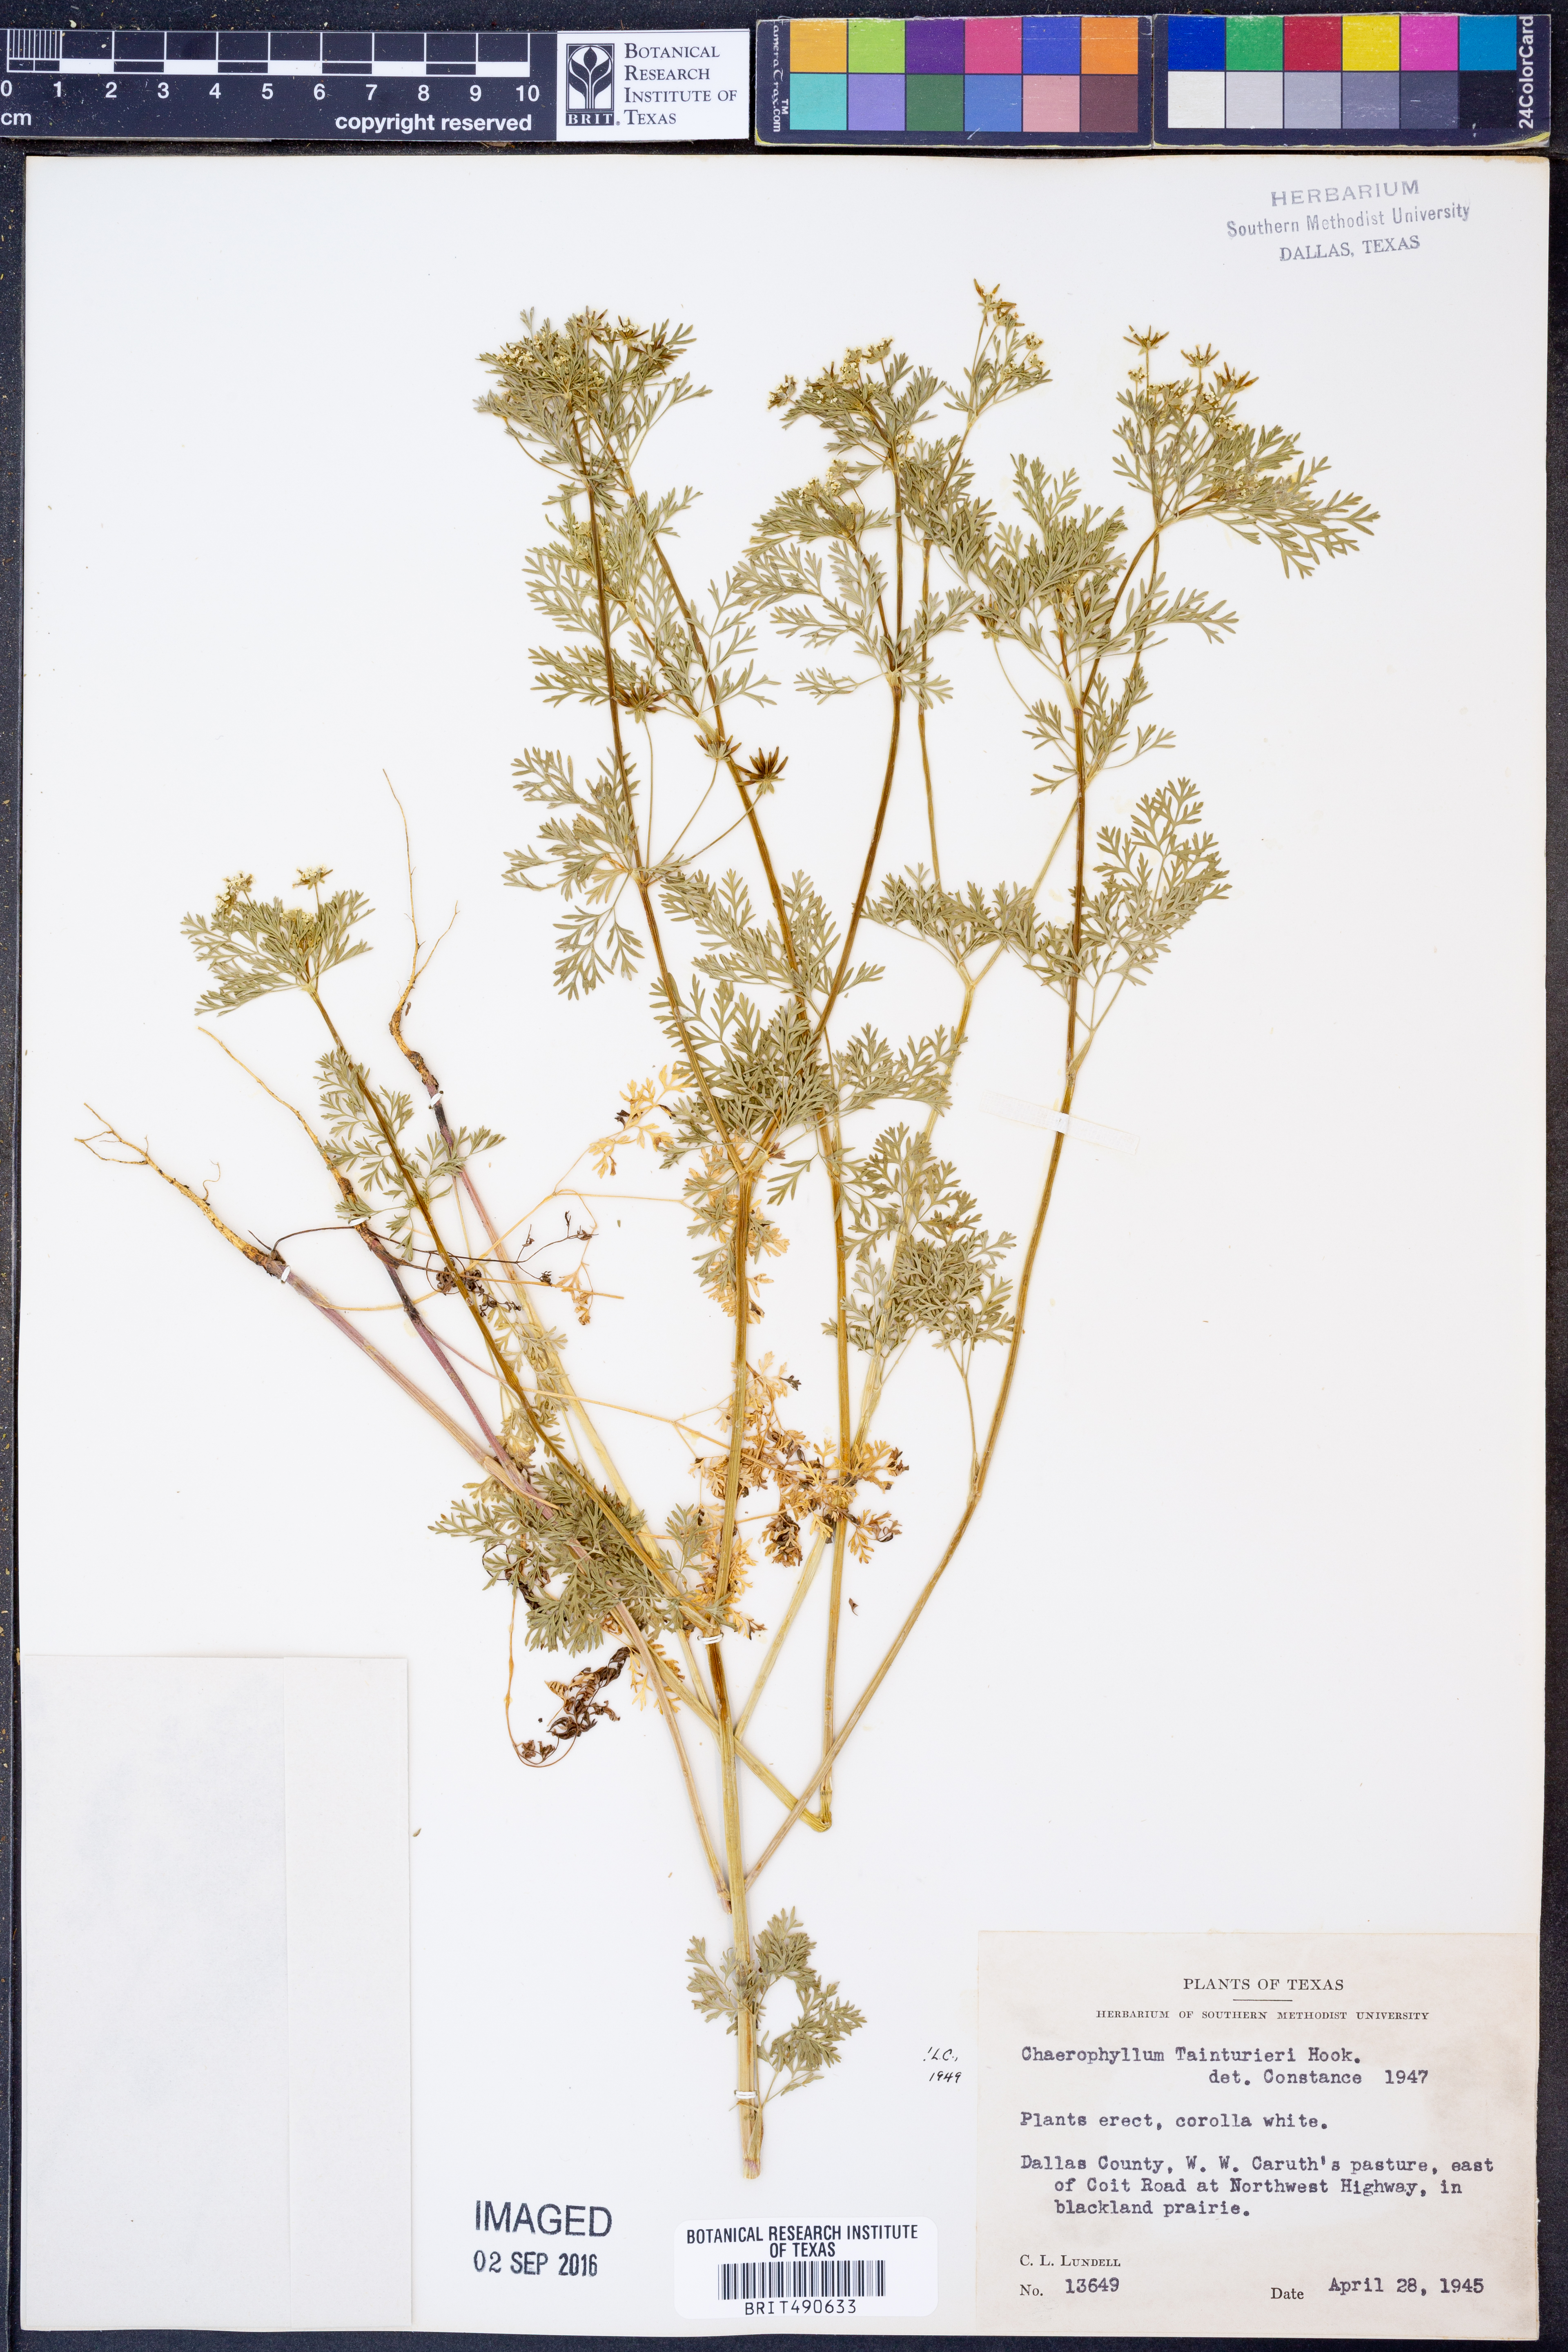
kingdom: Plantae
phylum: Tracheophyta
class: Magnoliopsida
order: Apiales
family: Apiaceae
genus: Chaerophyllum
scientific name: Chaerophyllum tainturieri
